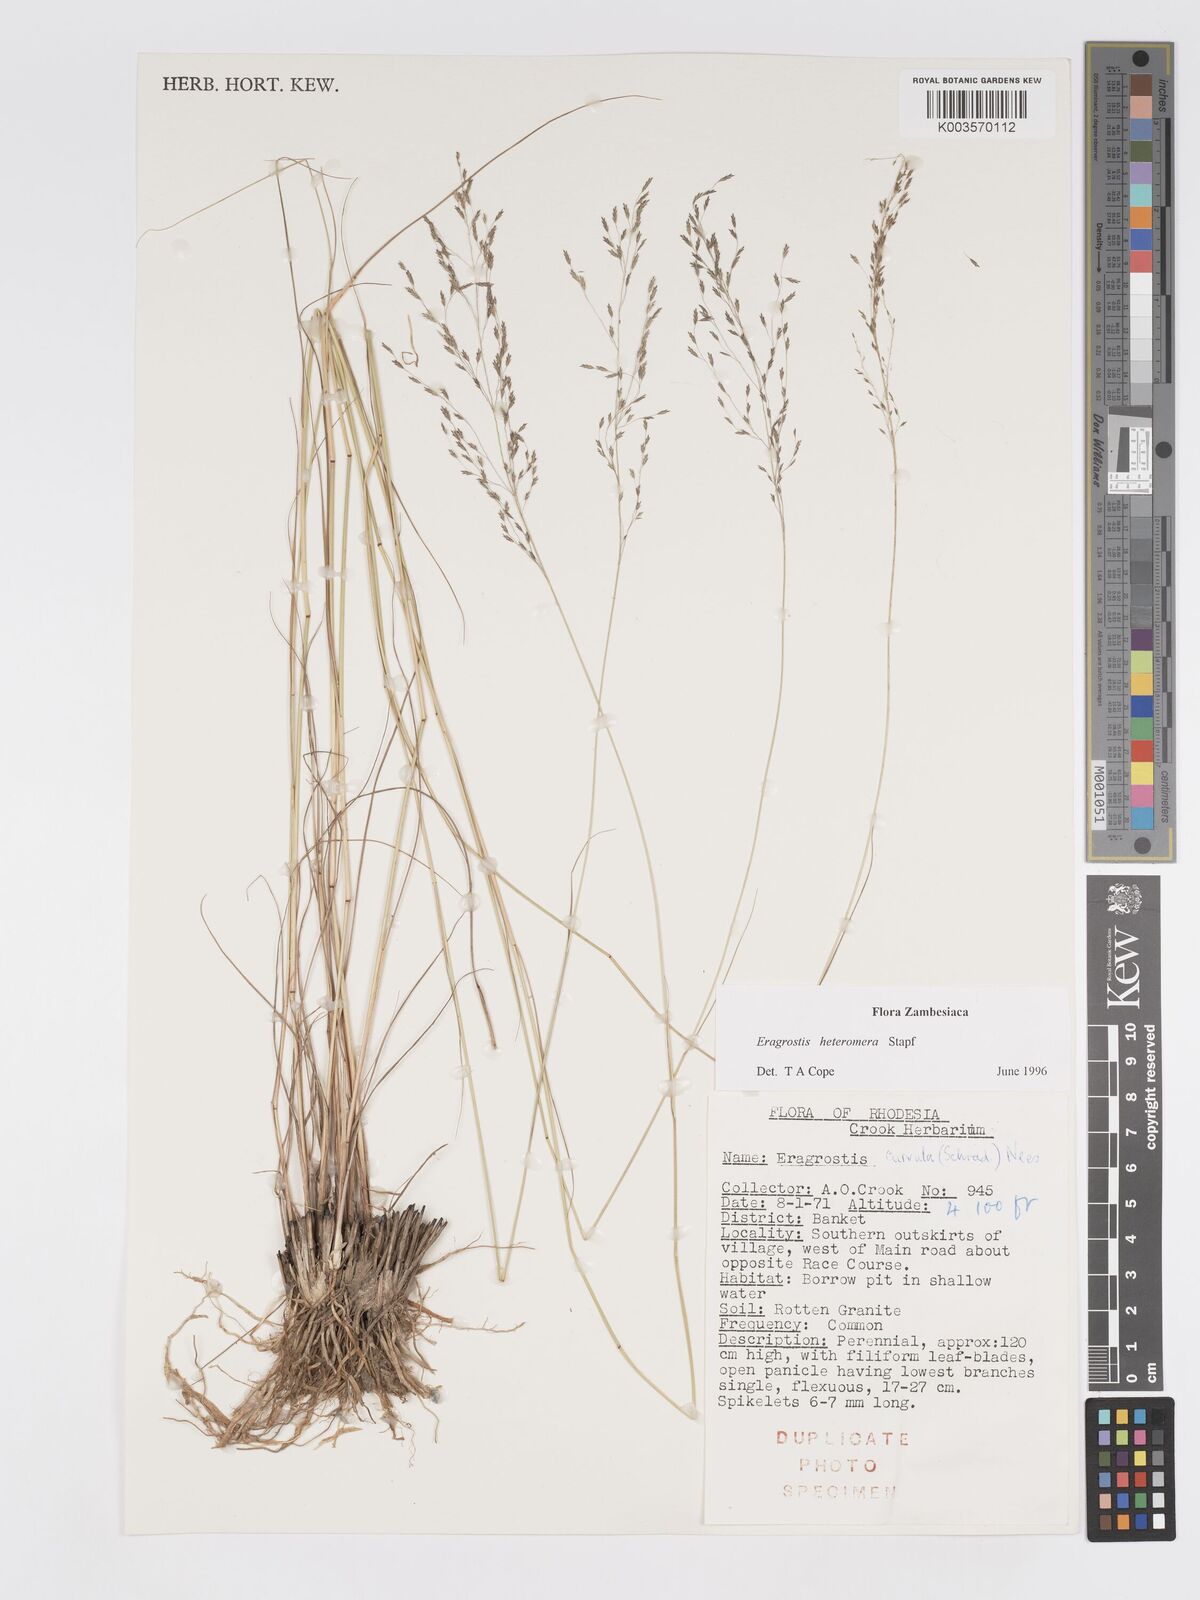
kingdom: Plantae
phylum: Tracheophyta
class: Liliopsida
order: Poales
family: Poaceae
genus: Eragrostis
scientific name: Eragrostis heteromera
